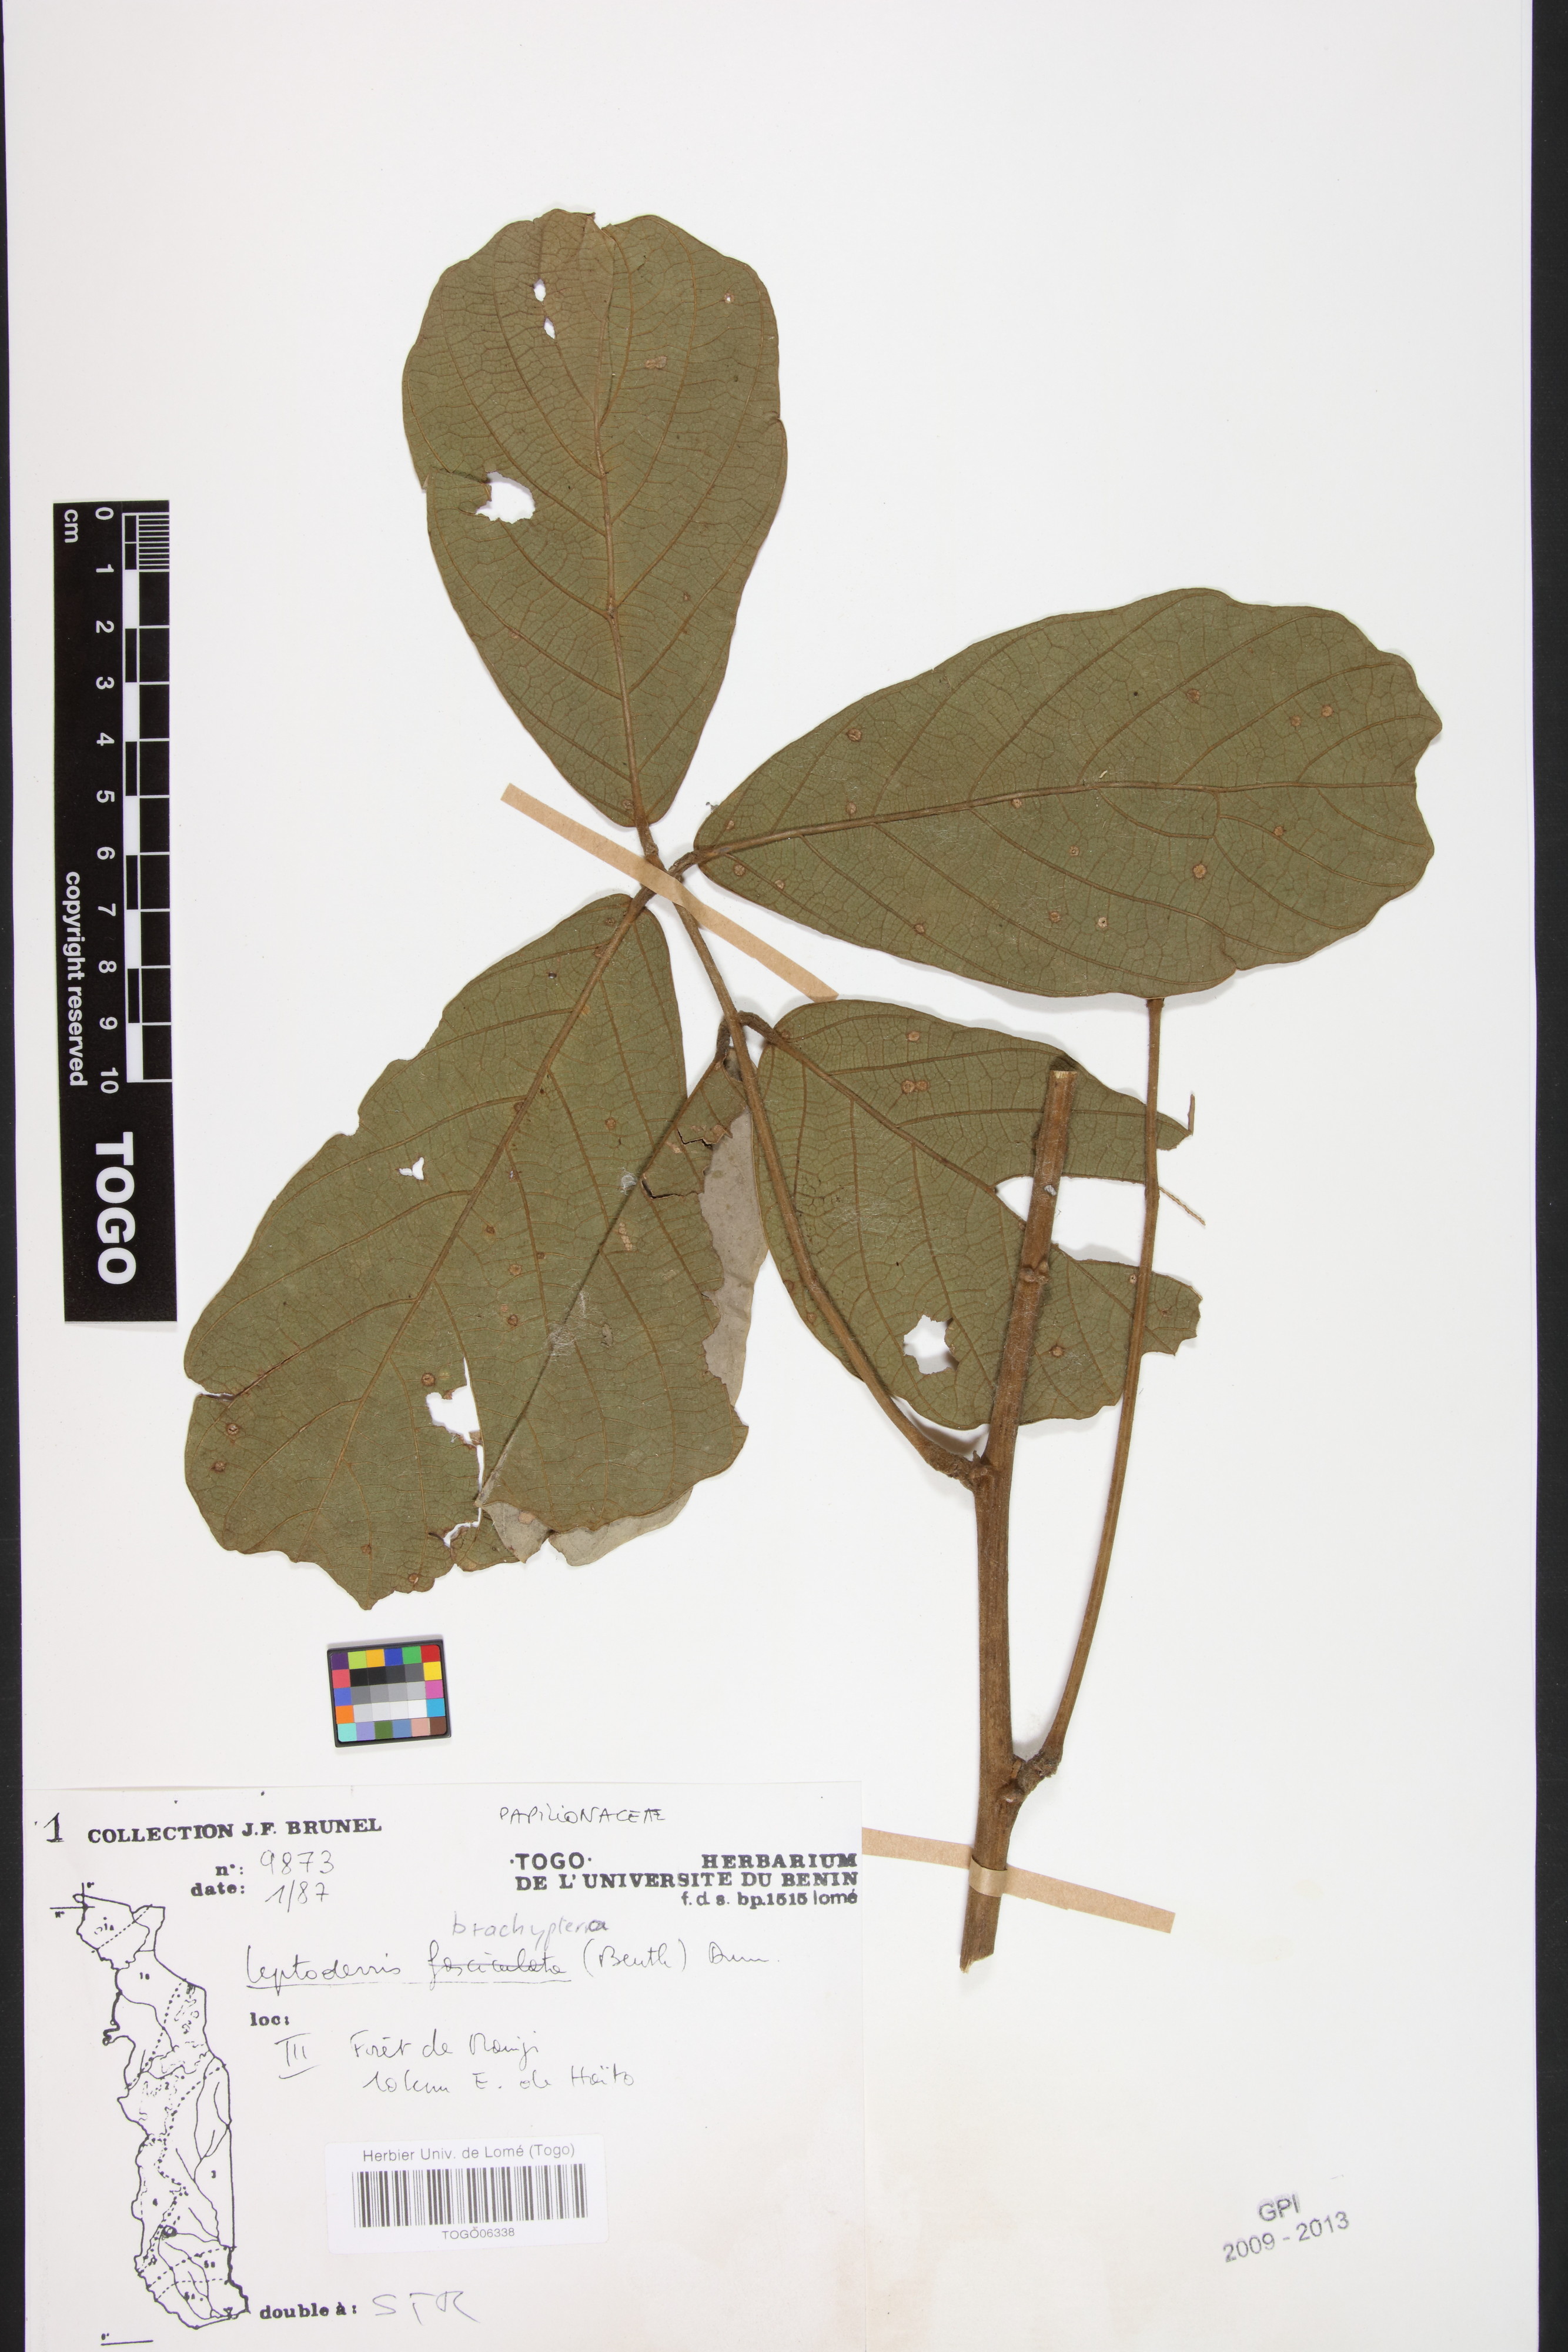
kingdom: Plantae
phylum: Tracheophyta
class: Magnoliopsida
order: Fabales
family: Fabaceae
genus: Leptoderris
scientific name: Leptoderris brachyptera
